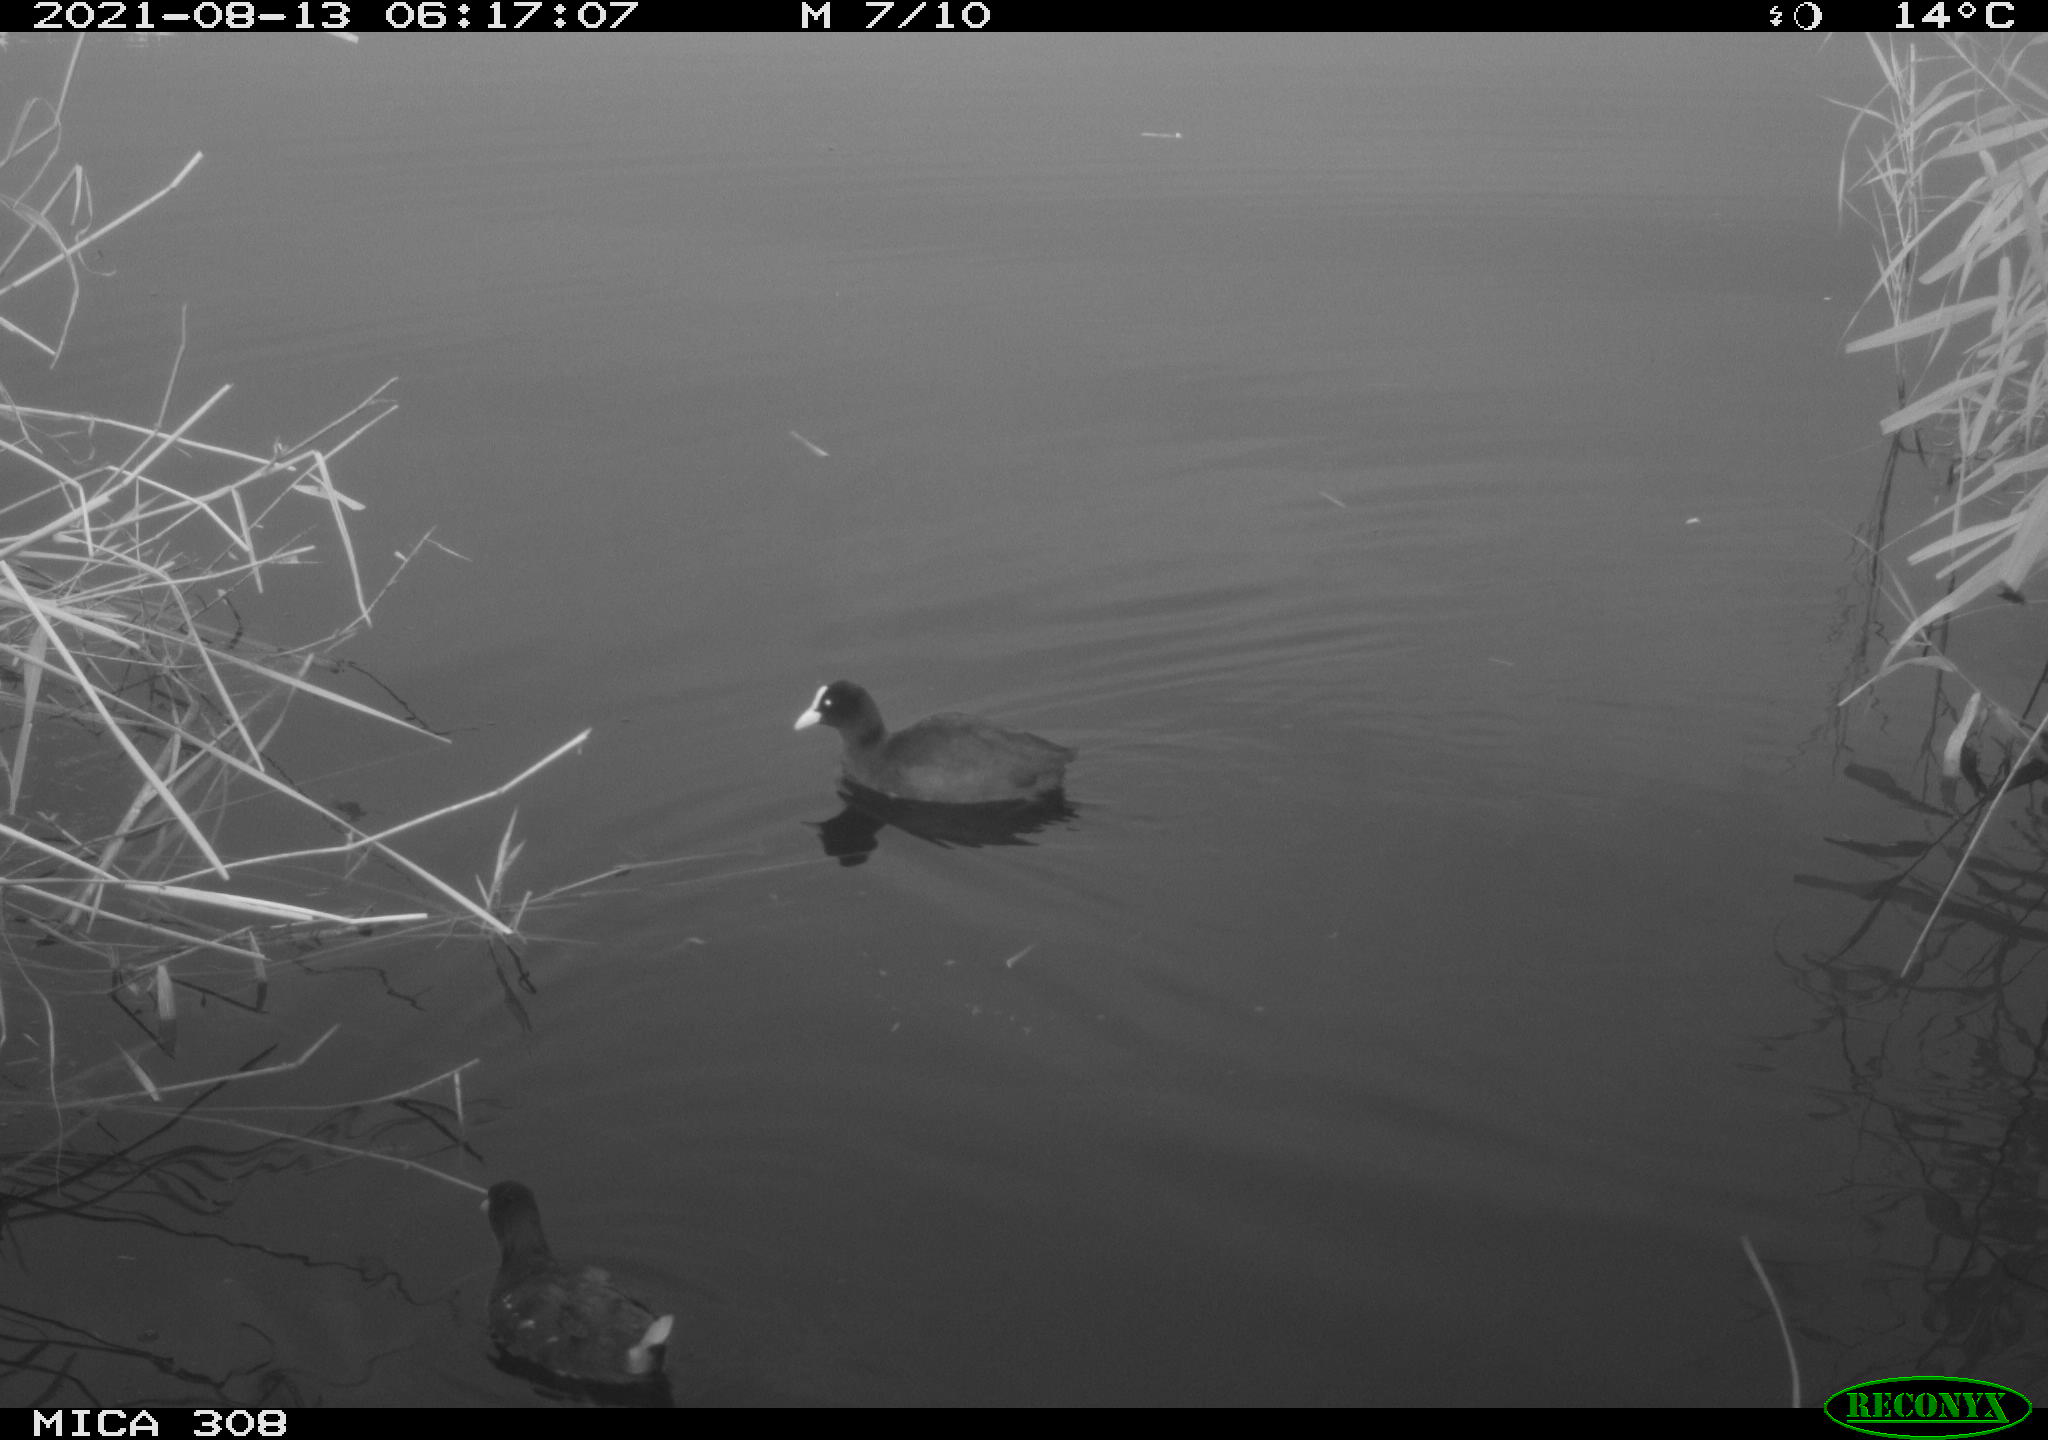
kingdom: Animalia
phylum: Chordata
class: Aves
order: Gruiformes
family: Rallidae
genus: Gallinula
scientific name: Gallinula chloropus
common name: Common moorhen
